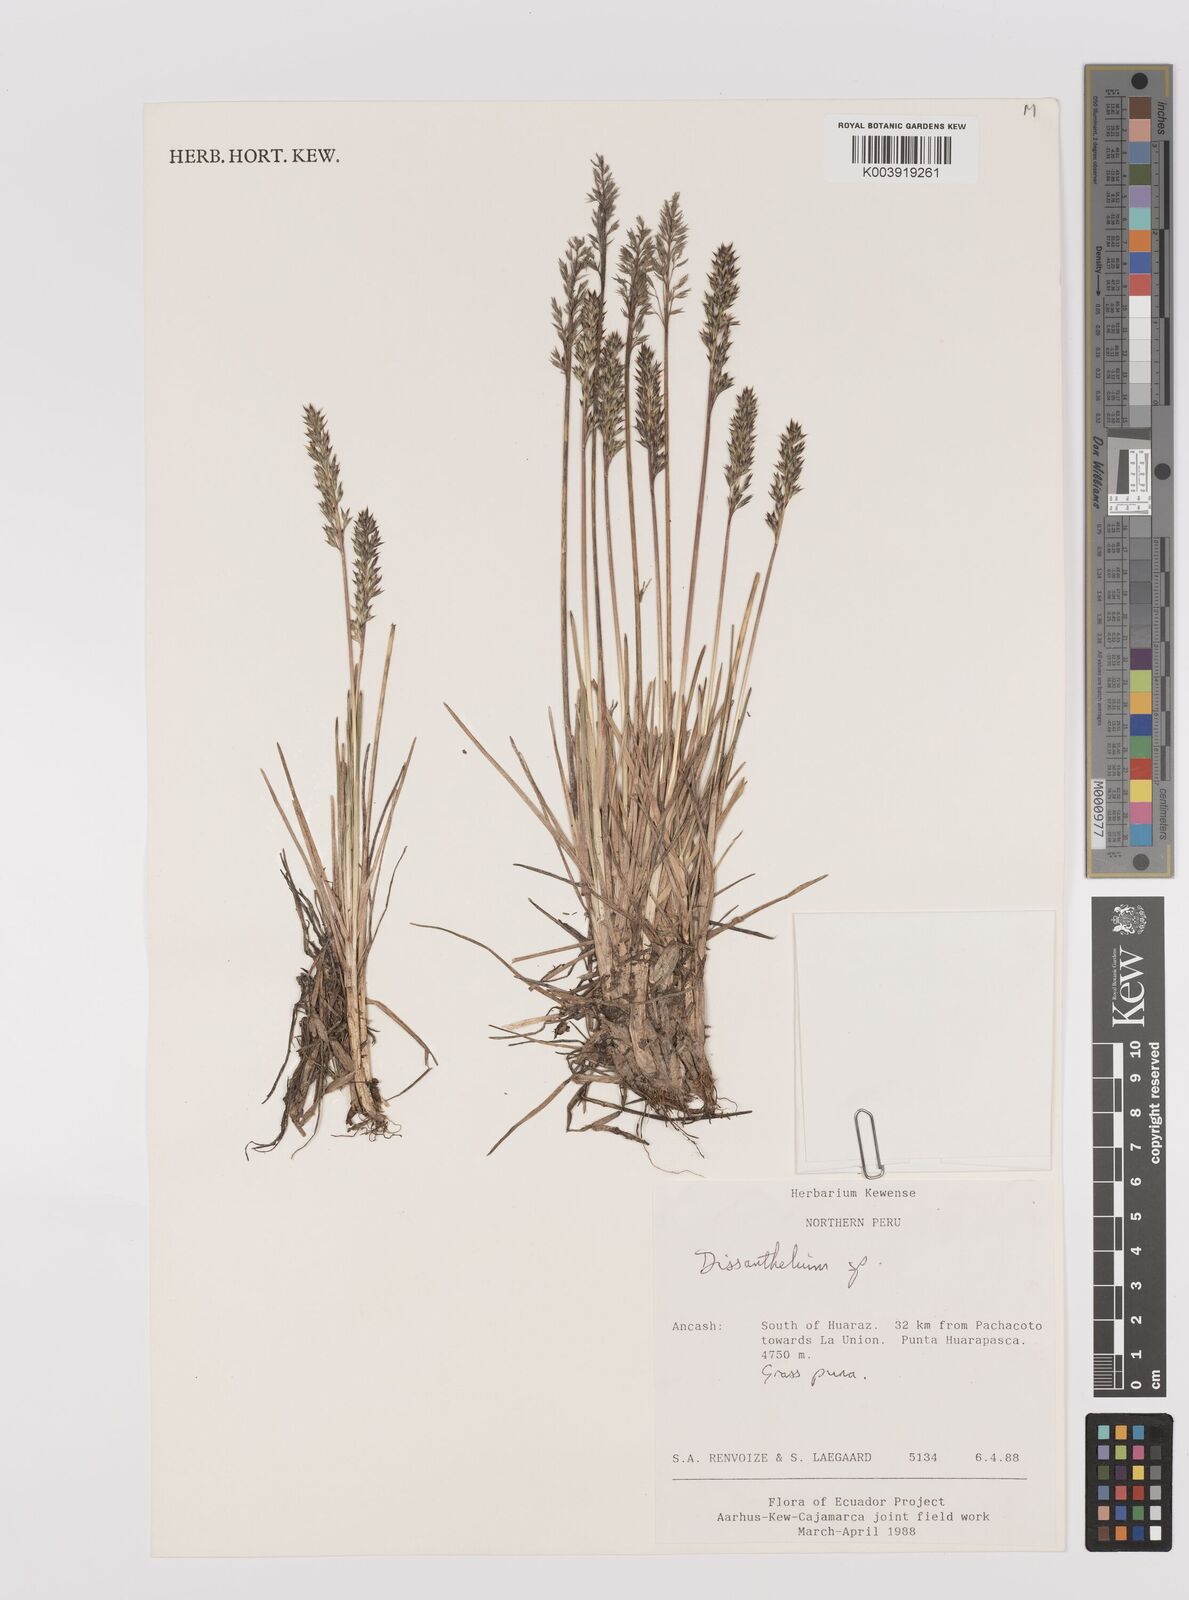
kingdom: Plantae
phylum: Tracheophyta
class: Liliopsida
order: Poales
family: Poaceae
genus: Poa
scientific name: Poa calycina
